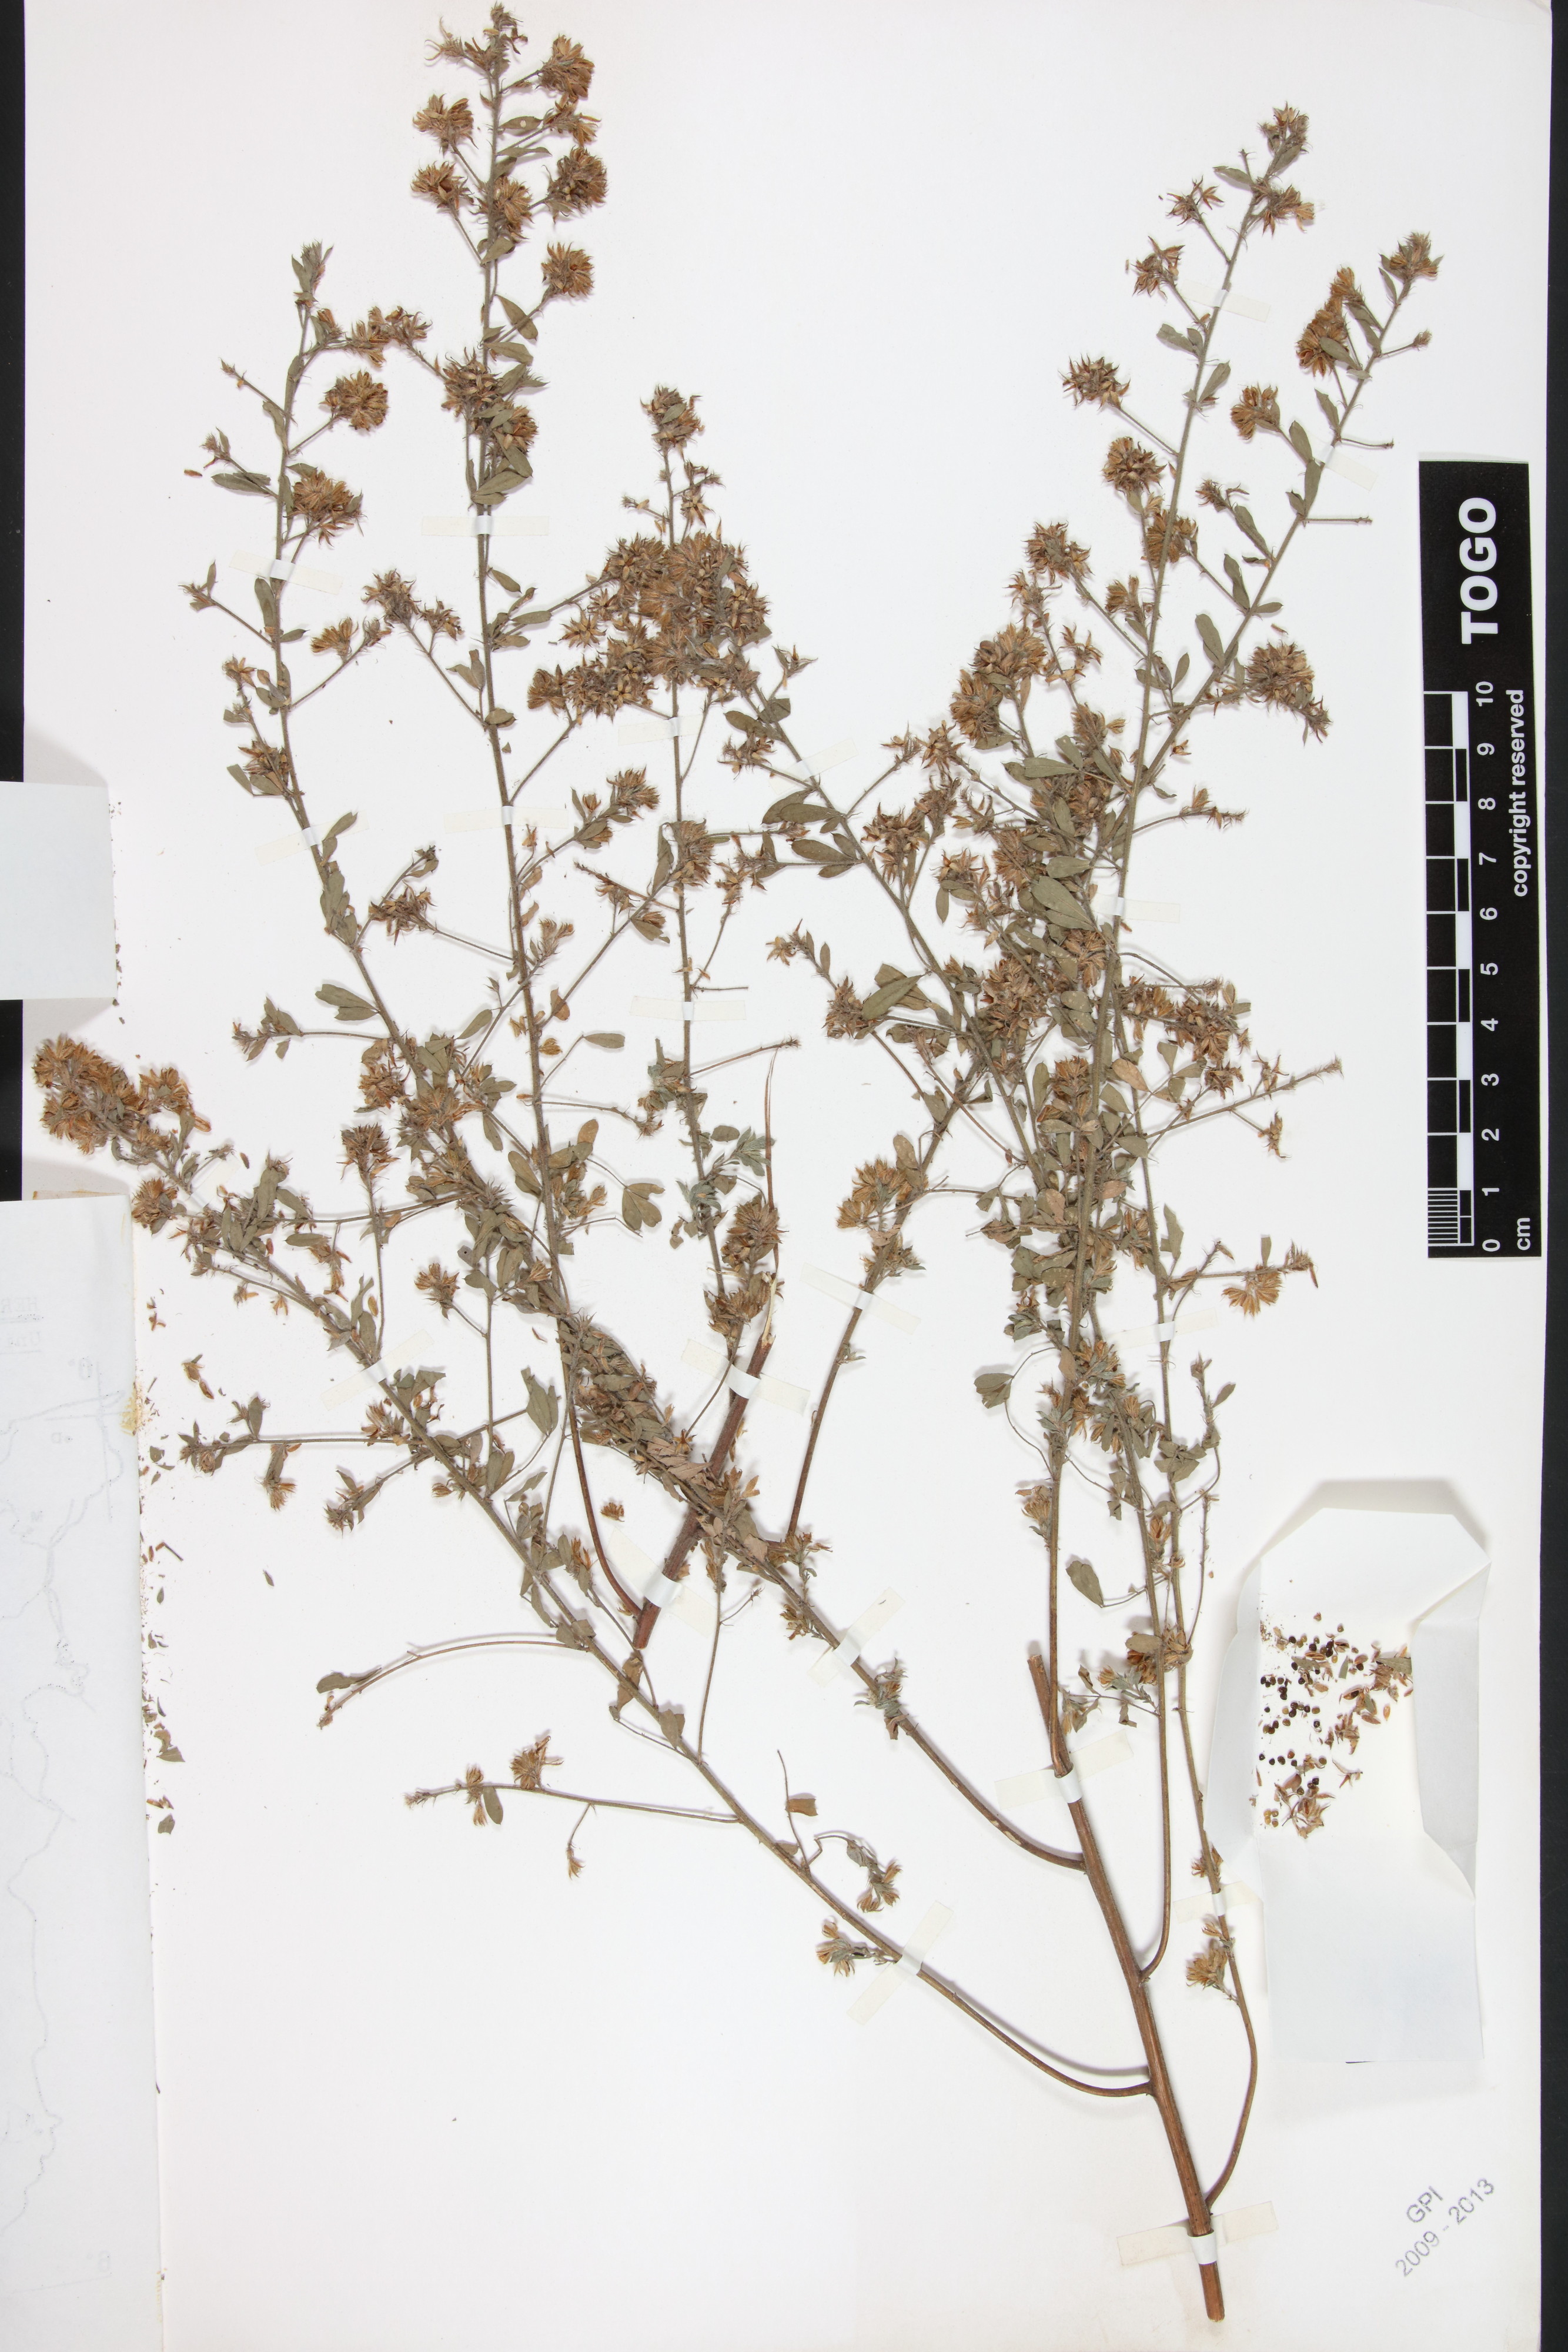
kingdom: Plantae
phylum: Tracheophyta
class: Magnoliopsida
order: Fabales
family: Fabaceae
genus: Indigofera
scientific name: Indigofera pulchra
